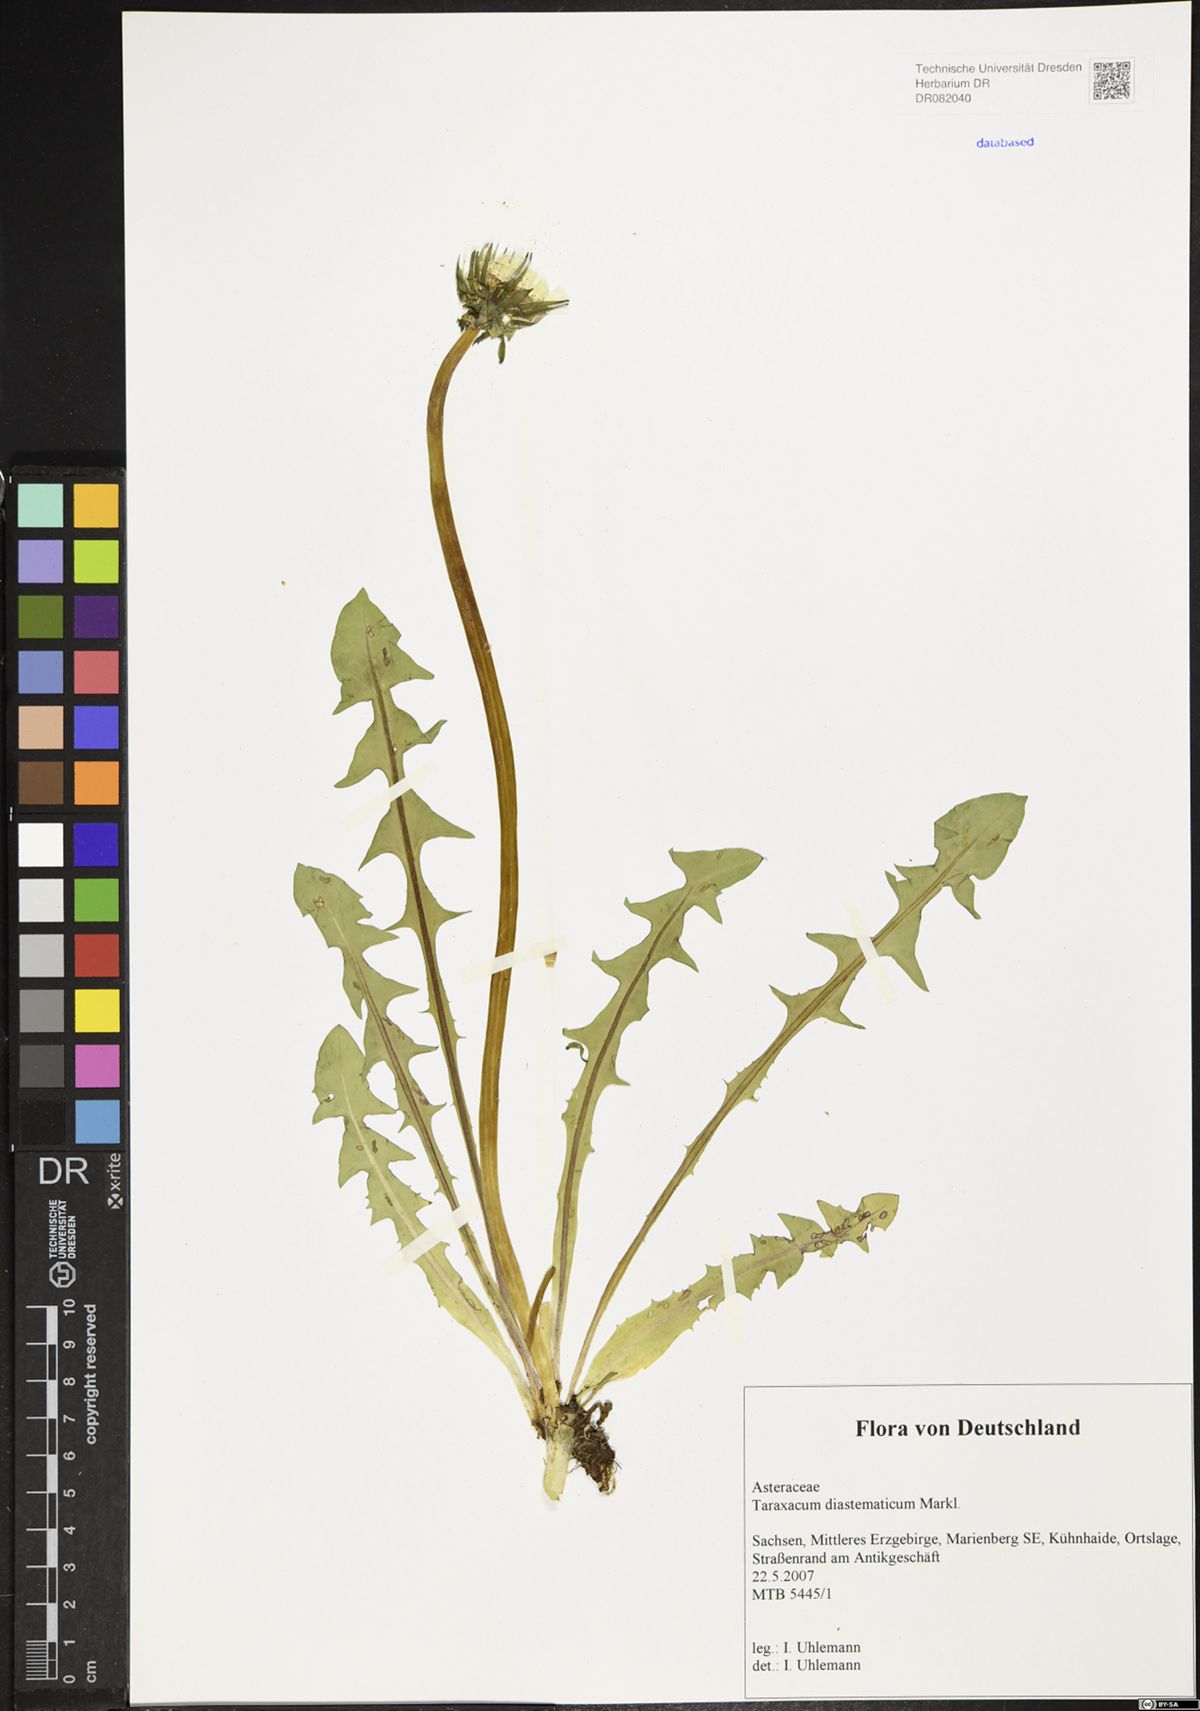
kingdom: Plantae
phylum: Tracheophyta
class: Magnoliopsida
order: Asterales
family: Asteraceae
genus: Taraxacum
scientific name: Taraxacum diastematicum
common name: Bulbous-lobed dandelion
